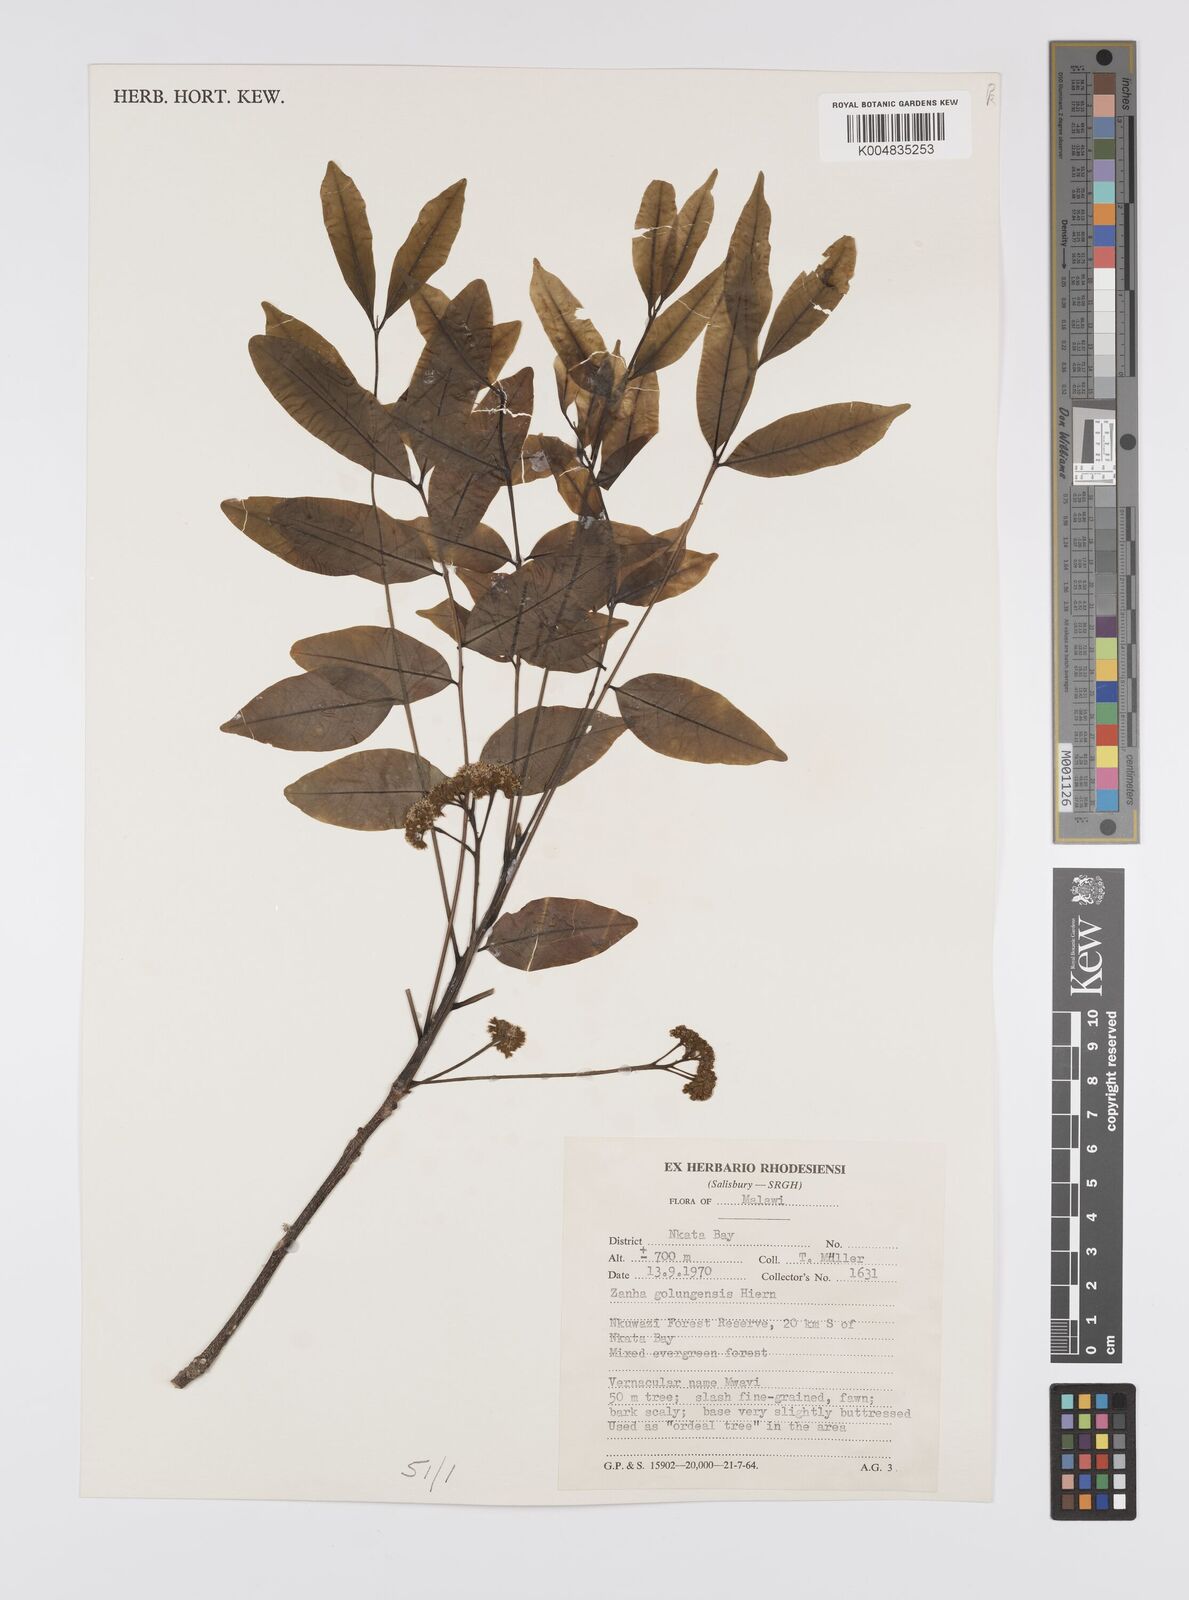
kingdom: Plantae
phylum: Tracheophyta
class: Magnoliopsida
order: Sapindales
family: Sapindaceae
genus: Zanha
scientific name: Zanha golungensis
